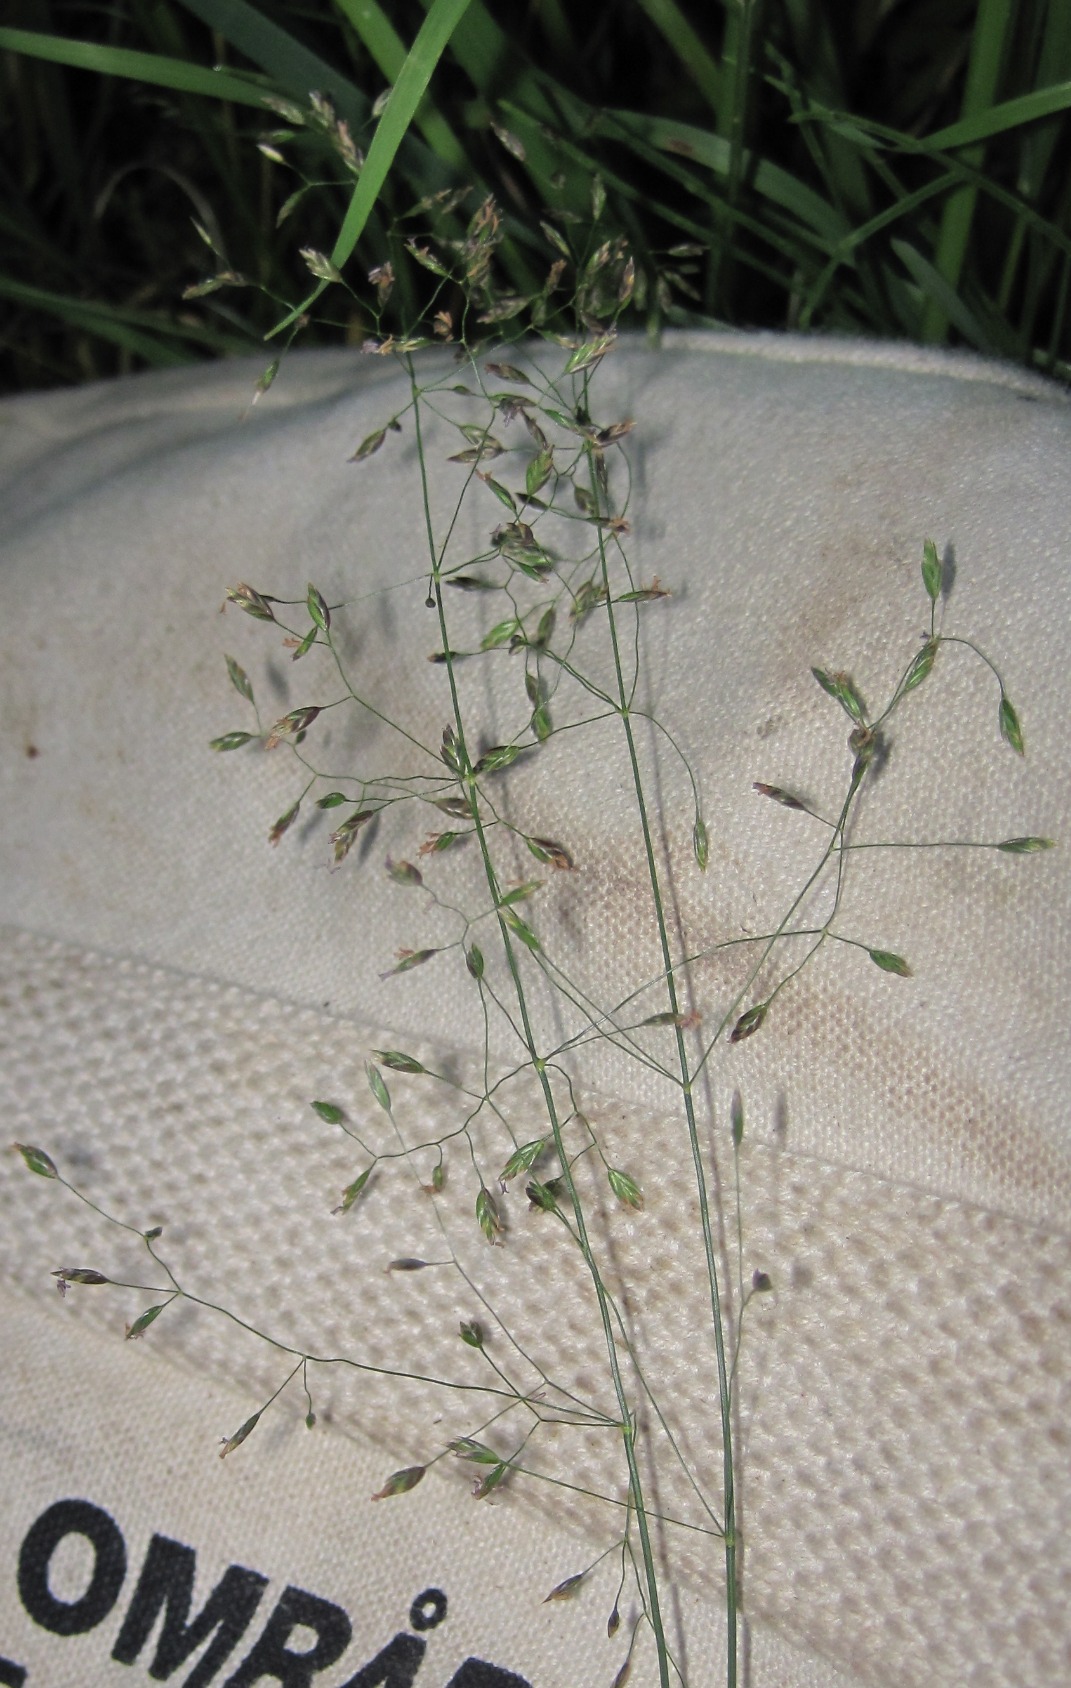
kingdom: Plantae
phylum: Tracheophyta
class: Liliopsida
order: Poales
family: Poaceae
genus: Poa
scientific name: Poa palustris
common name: Stortoppet rapgræs
